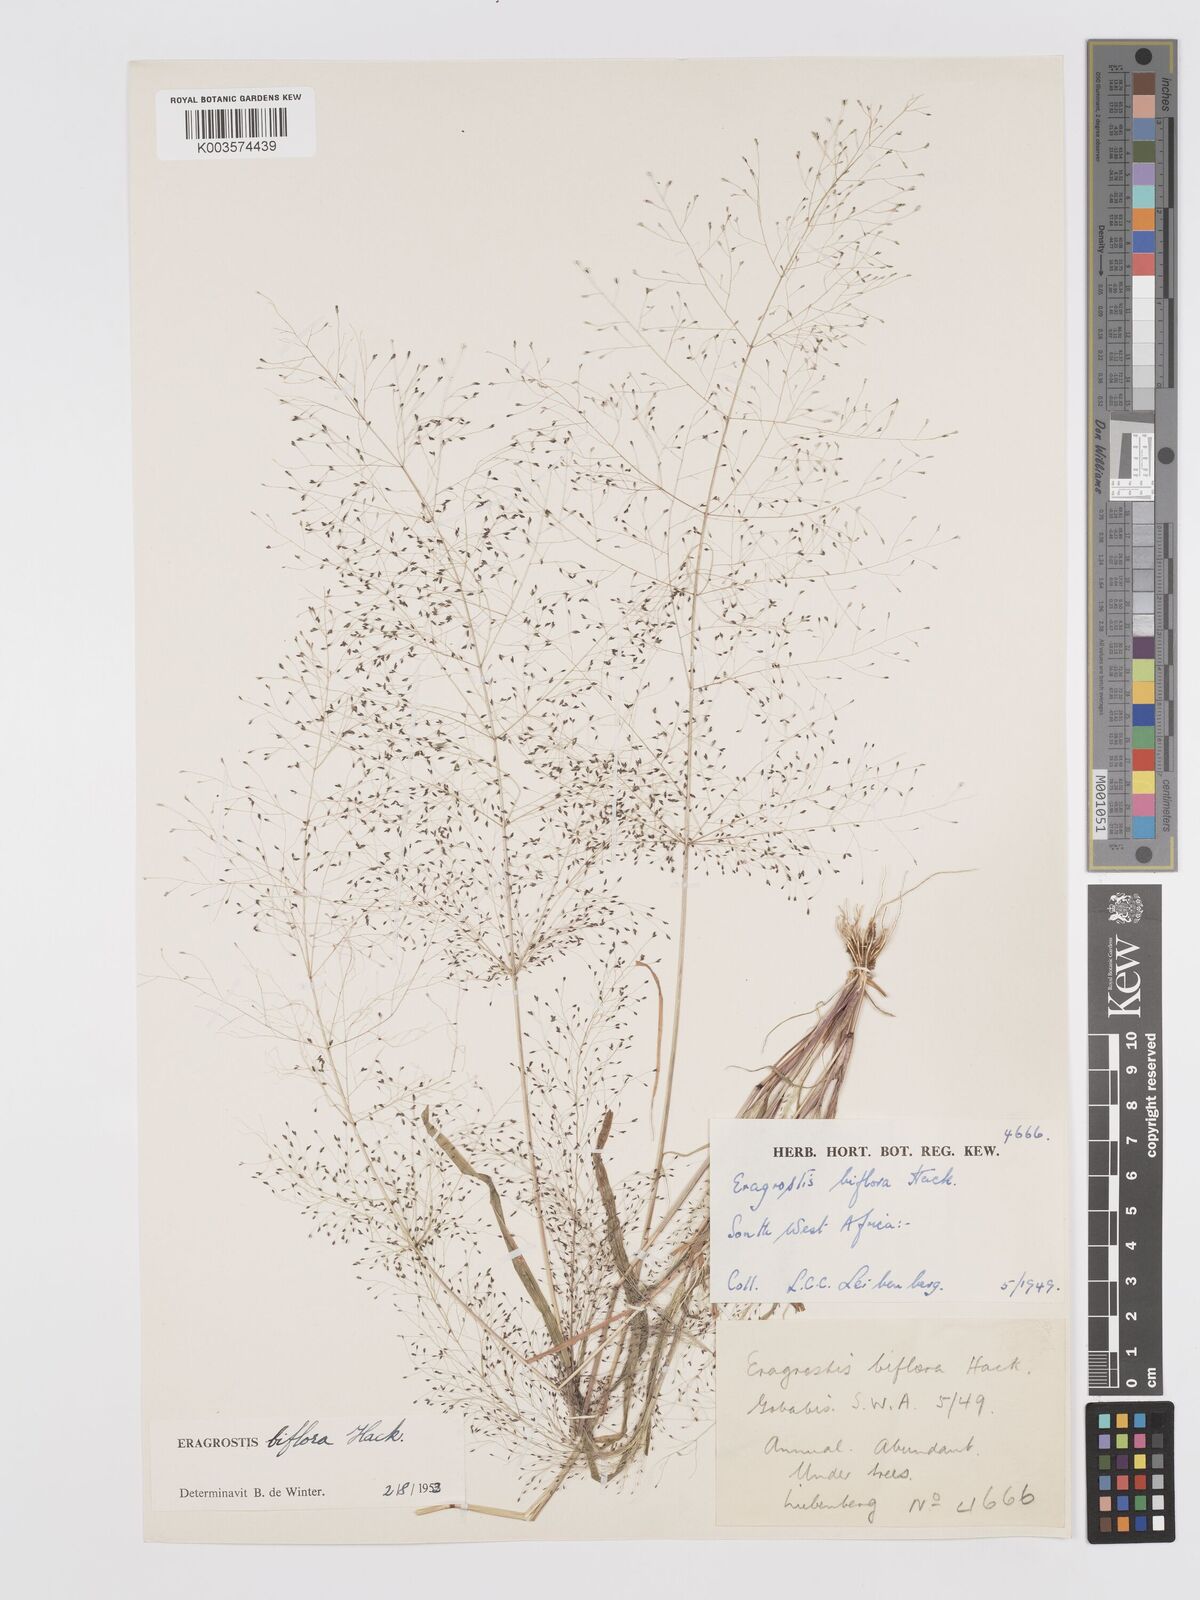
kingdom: Plantae
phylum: Tracheophyta
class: Liliopsida
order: Poales
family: Poaceae
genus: Eragrostis
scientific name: Eragrostis biflora
